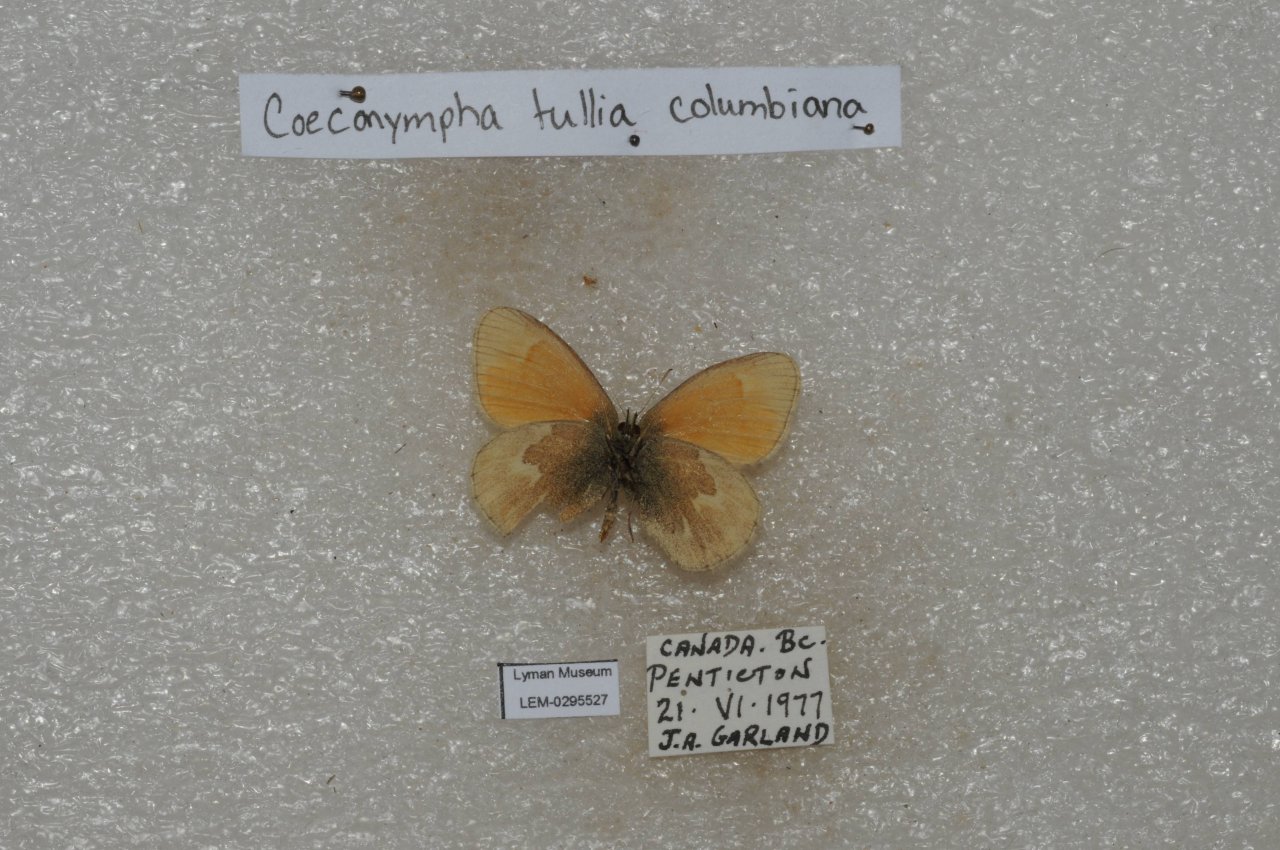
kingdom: Animalia
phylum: Arthropoda
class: Insecta
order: Lepidoptera
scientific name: Lepidoptera
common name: Butterflies
